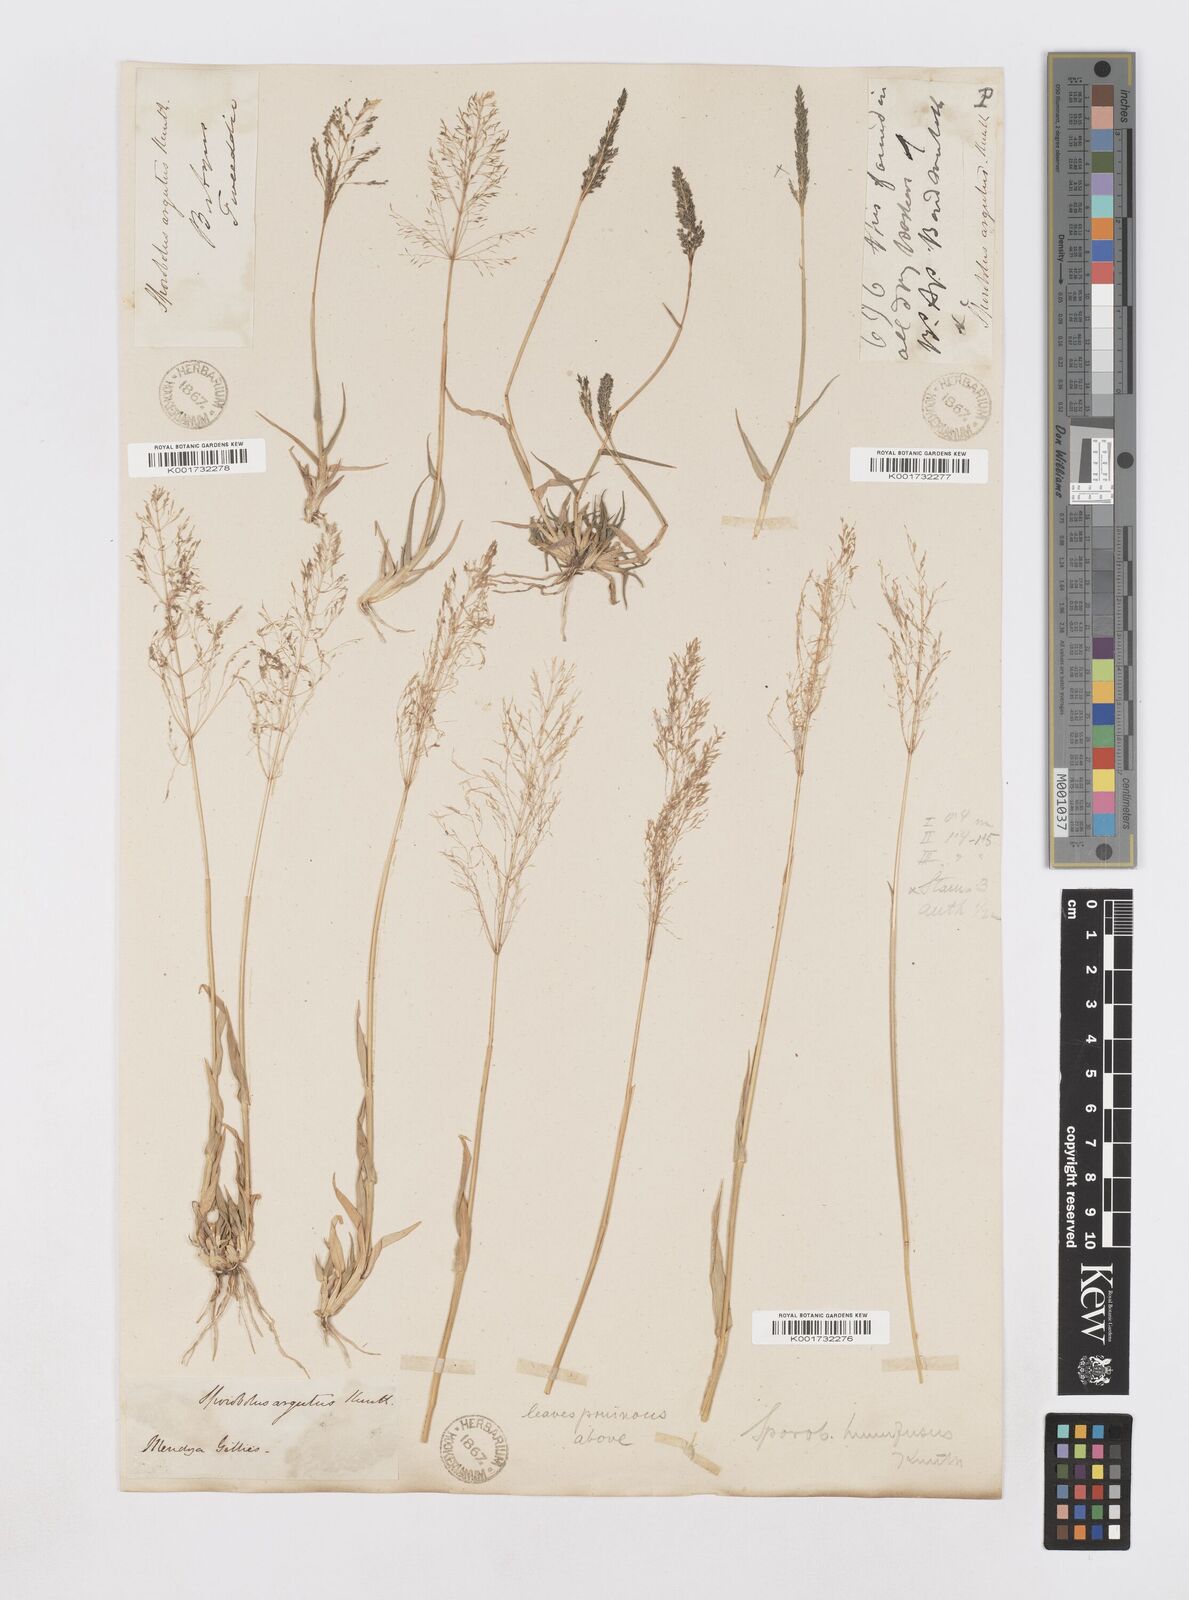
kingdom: Plantae
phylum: Tracheophyta
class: Liliopsida
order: Poales
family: Poaceae
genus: Sporobolus
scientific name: Sporobolus pyramidatus
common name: Whorled dropseed
